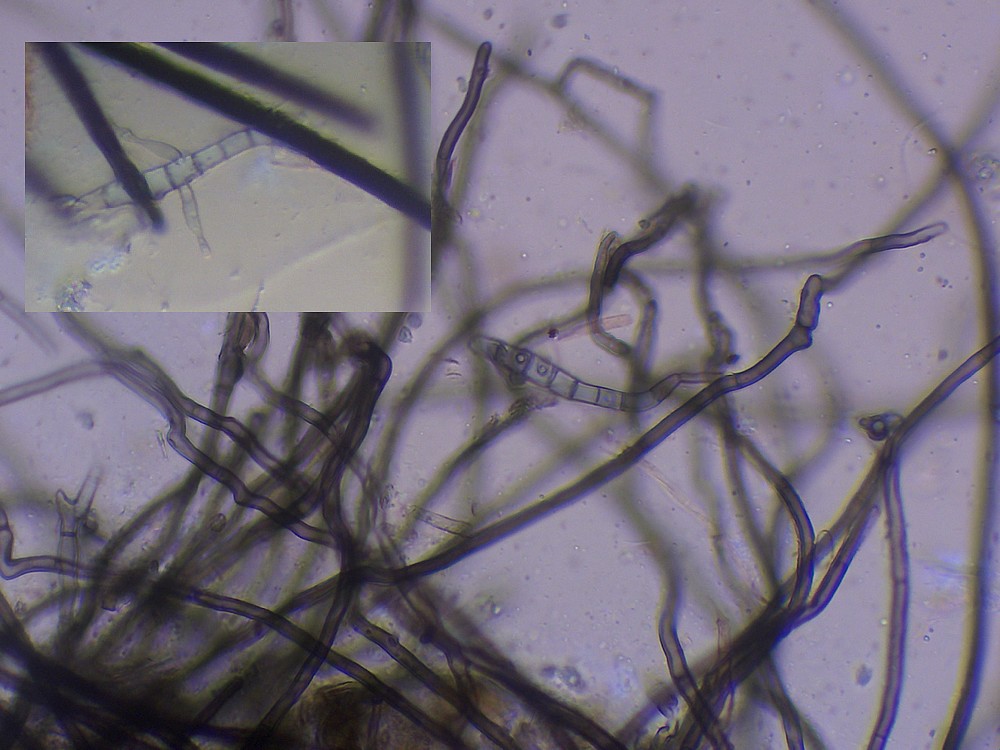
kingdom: Fungi
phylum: Ascomycota
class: Sordariomycetes
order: Sordariales
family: Lasiosphaeridaceae
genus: Lasiosphaeris
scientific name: Lasiosphaeris hirsuta
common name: sorthåret kernesvamp
